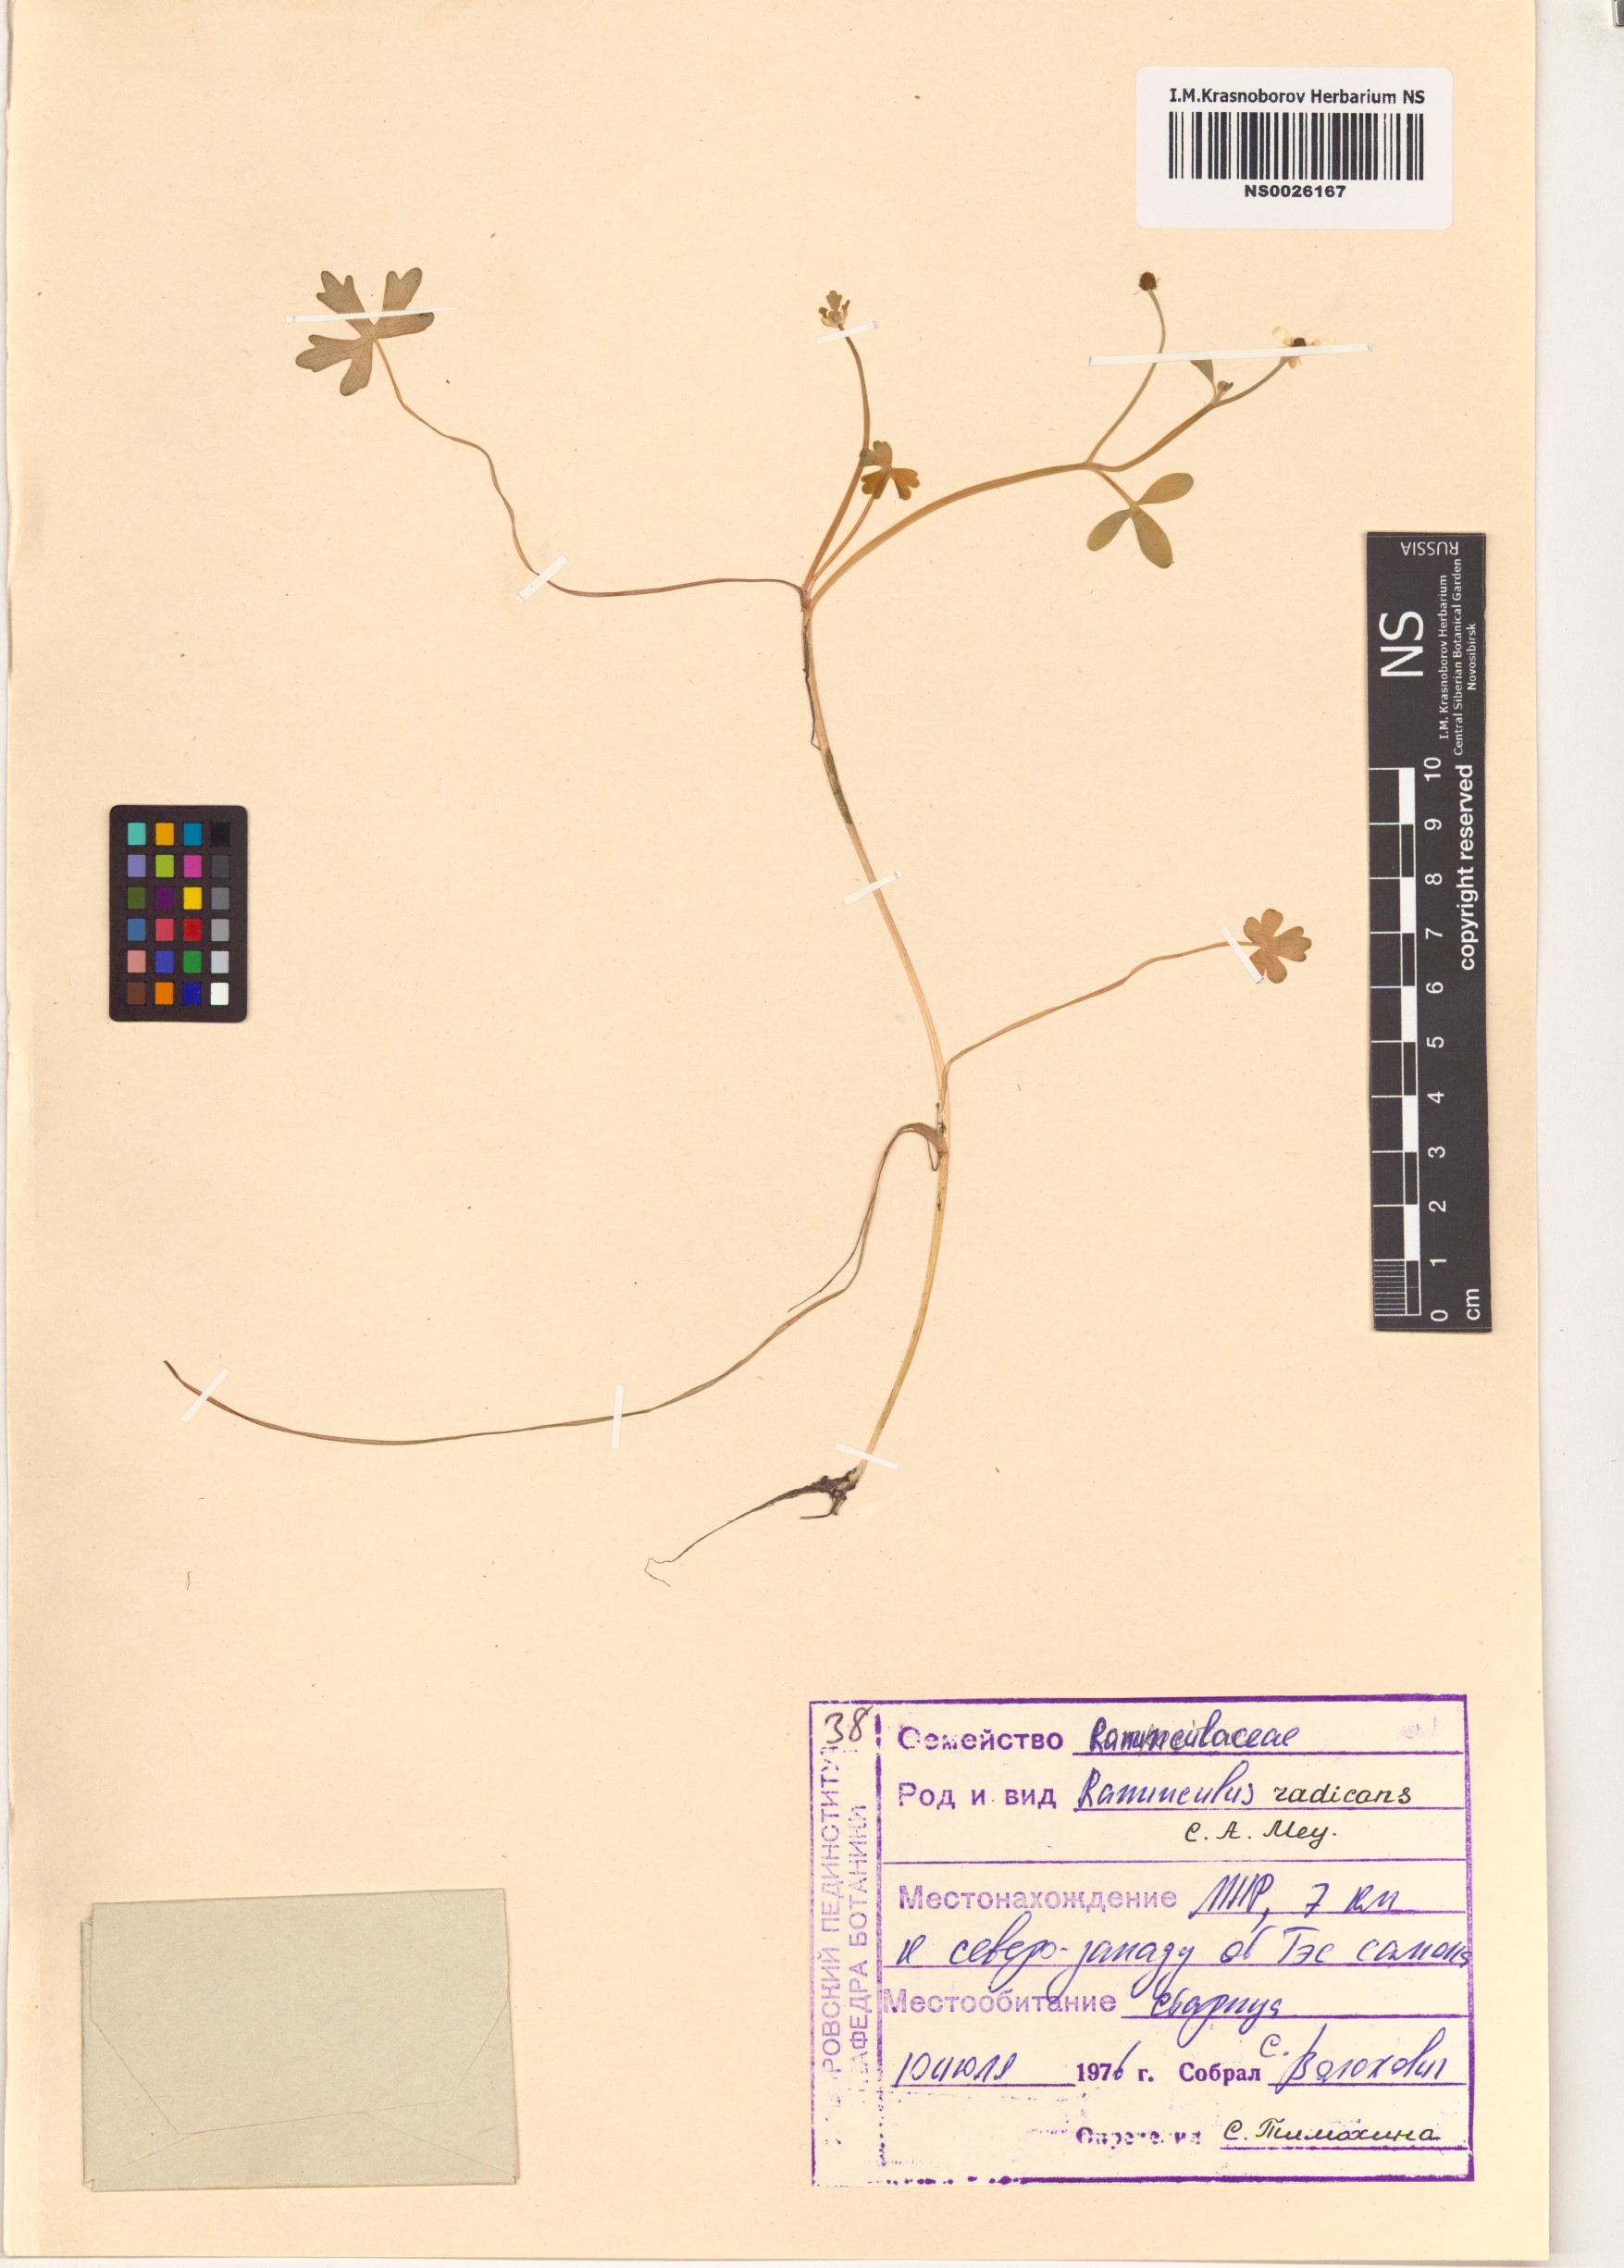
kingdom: Plantae
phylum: Tracheophyta
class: Magnoliopsida
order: Ranunculales
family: Ranunculaceae
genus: Ranunculus
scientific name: Ranunculus radicans
